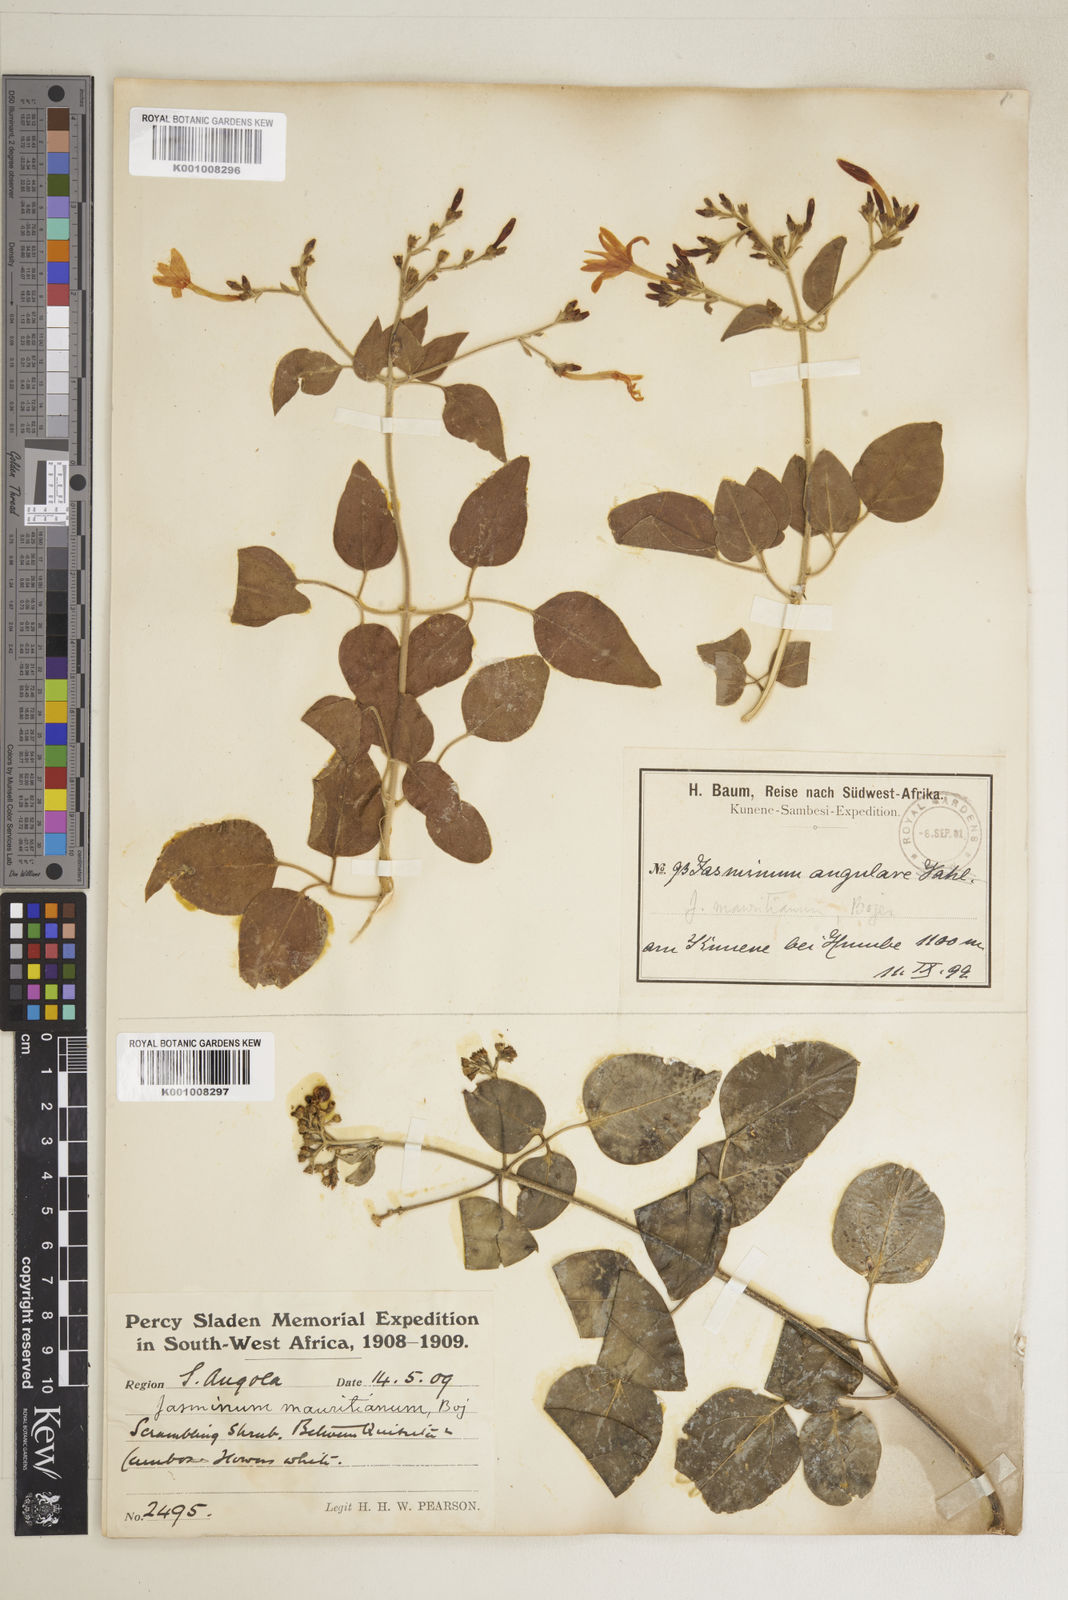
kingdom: Plantae
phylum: Tracheophyta
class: Magnoliopsida
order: Lamiales
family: Oleaceae
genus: Jasminum
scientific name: Jasminum fluminense
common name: Brazilian jasmine
